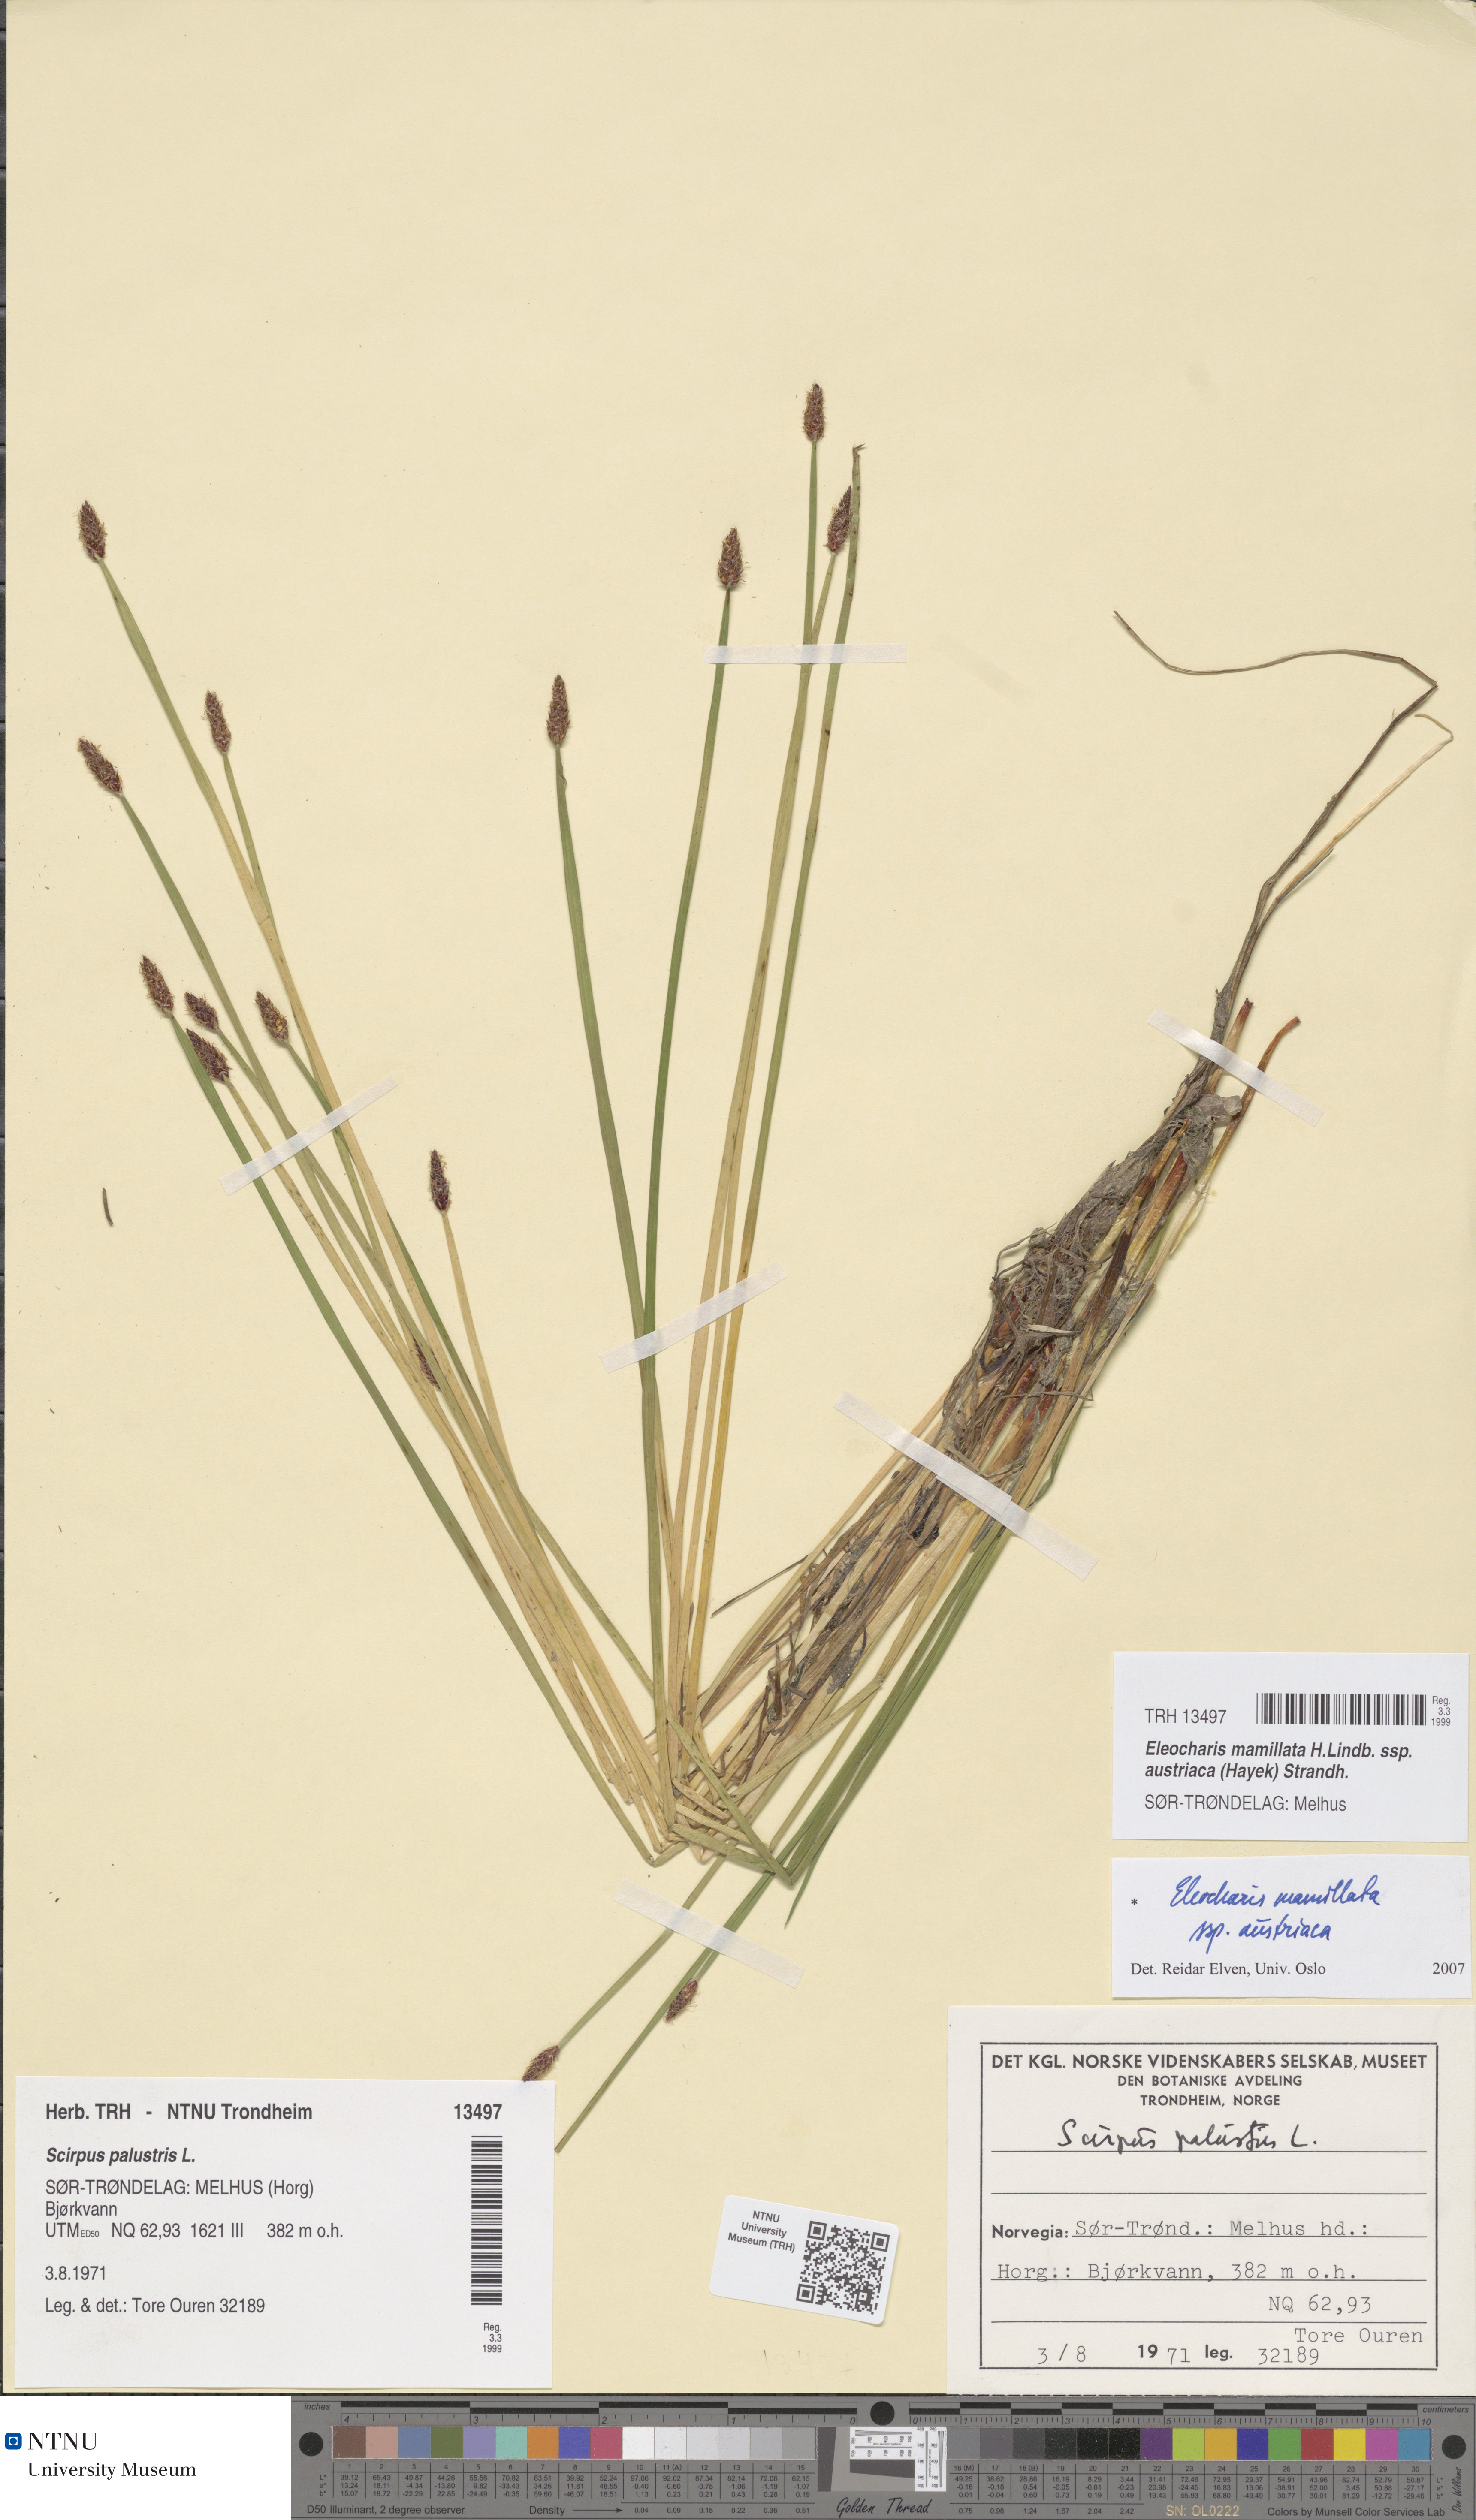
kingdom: Plantae
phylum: Tracheophyta
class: Liliopsida
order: Poales
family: Cyperaceae
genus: Eleocharis
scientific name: Eleocharis mamillata
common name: Northern spike-rush
